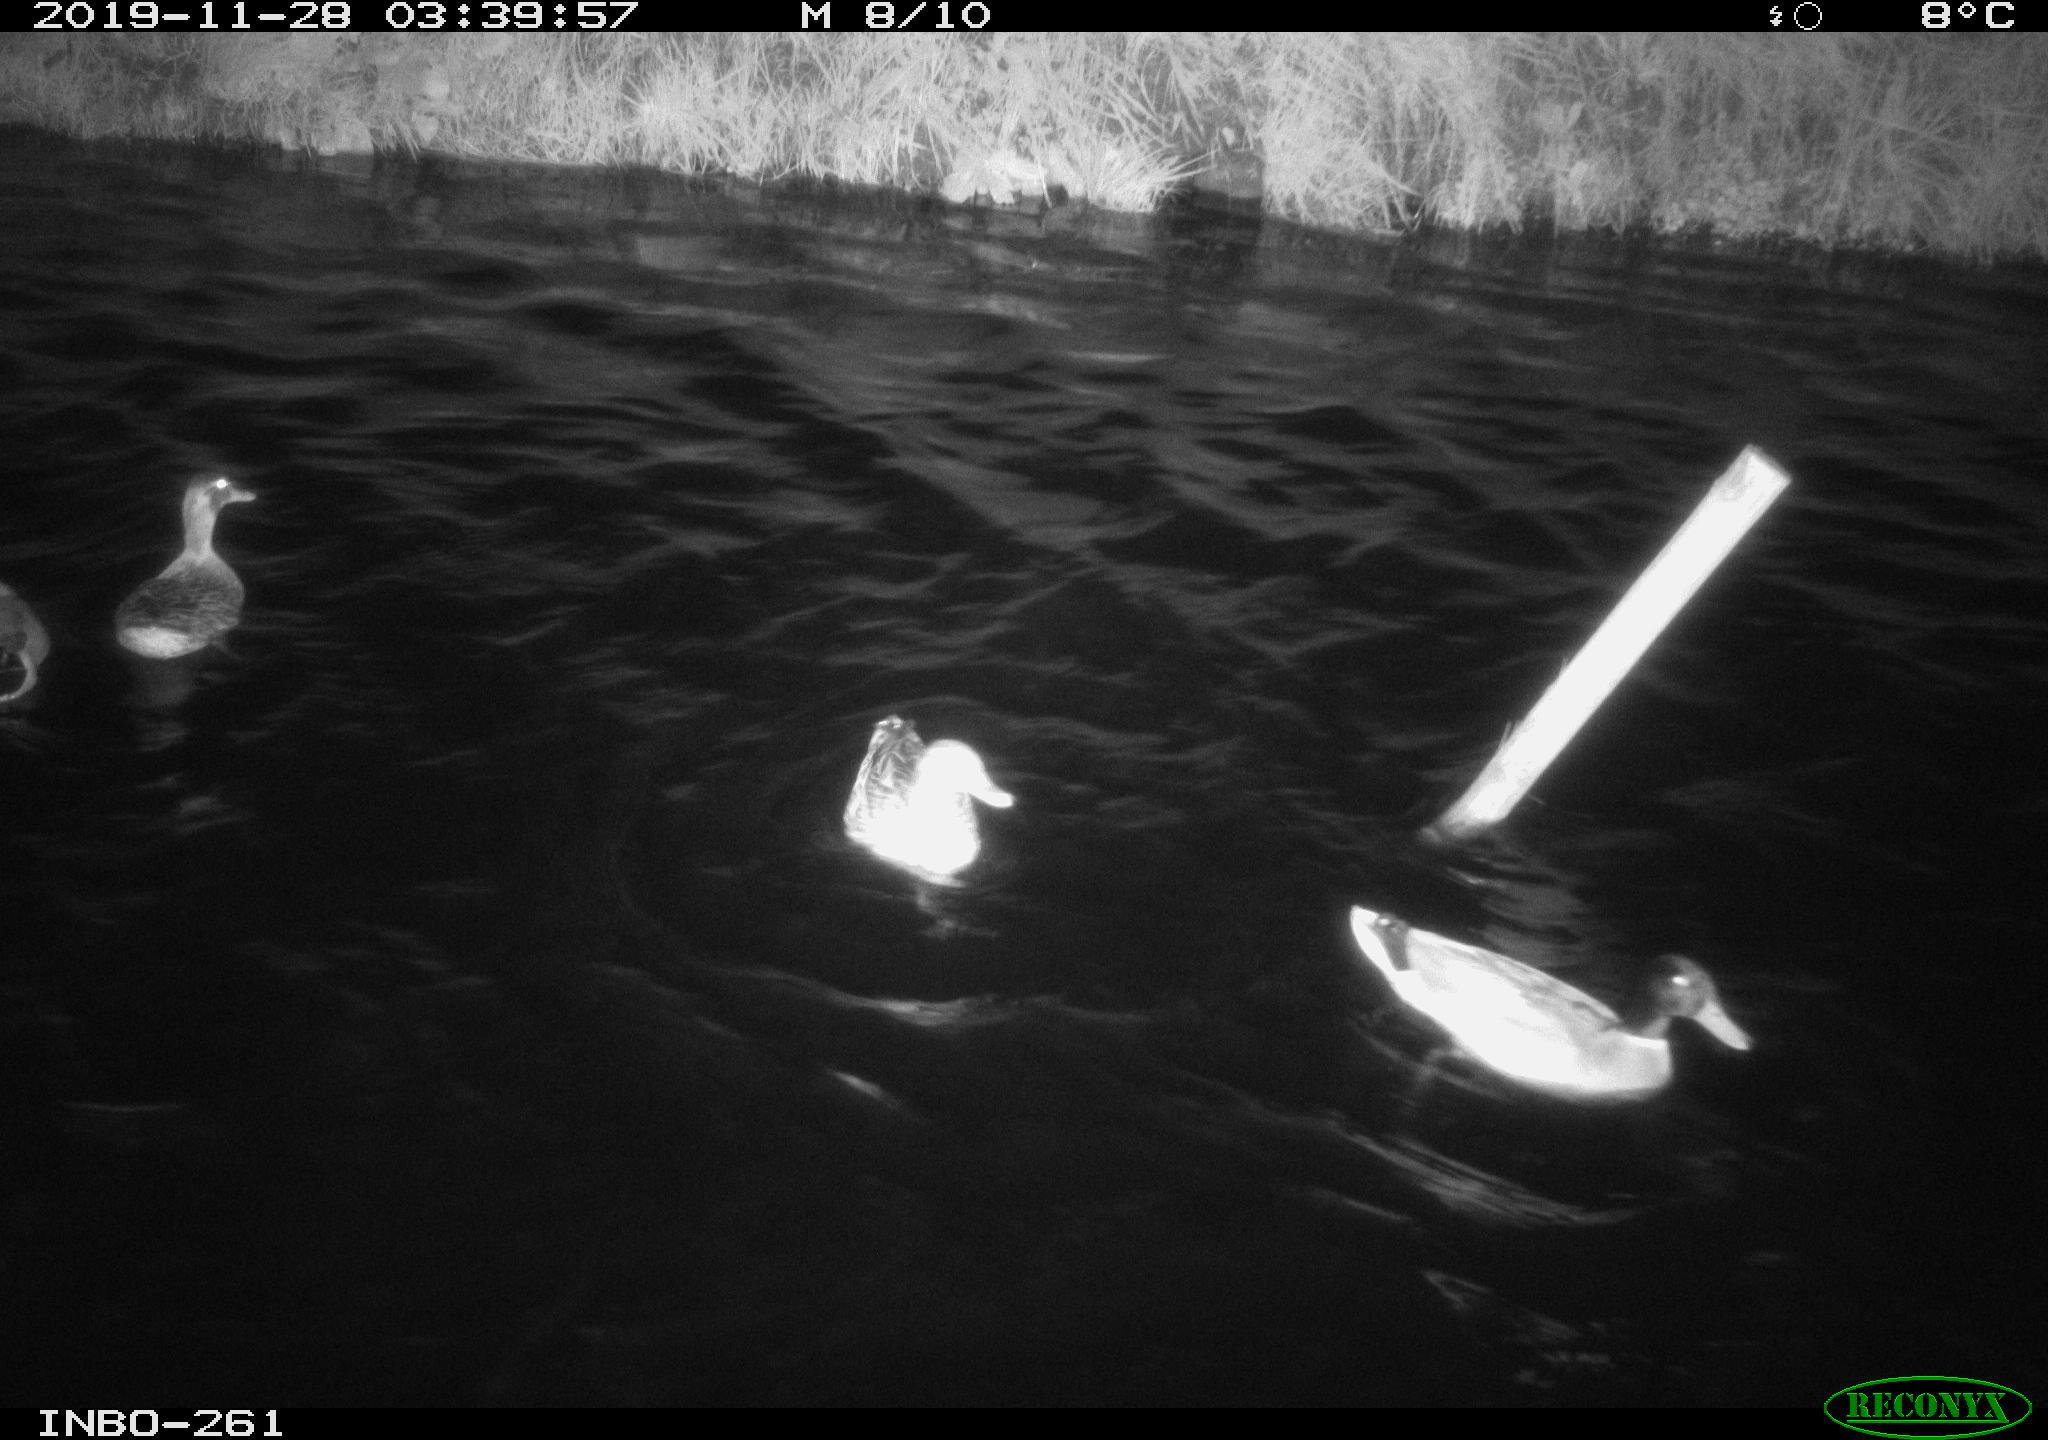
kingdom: Animalia
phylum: Chordata
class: Aves
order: Anseriformes
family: Anatidae
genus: Anas
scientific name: Anas platyrhynchos
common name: Mallard
